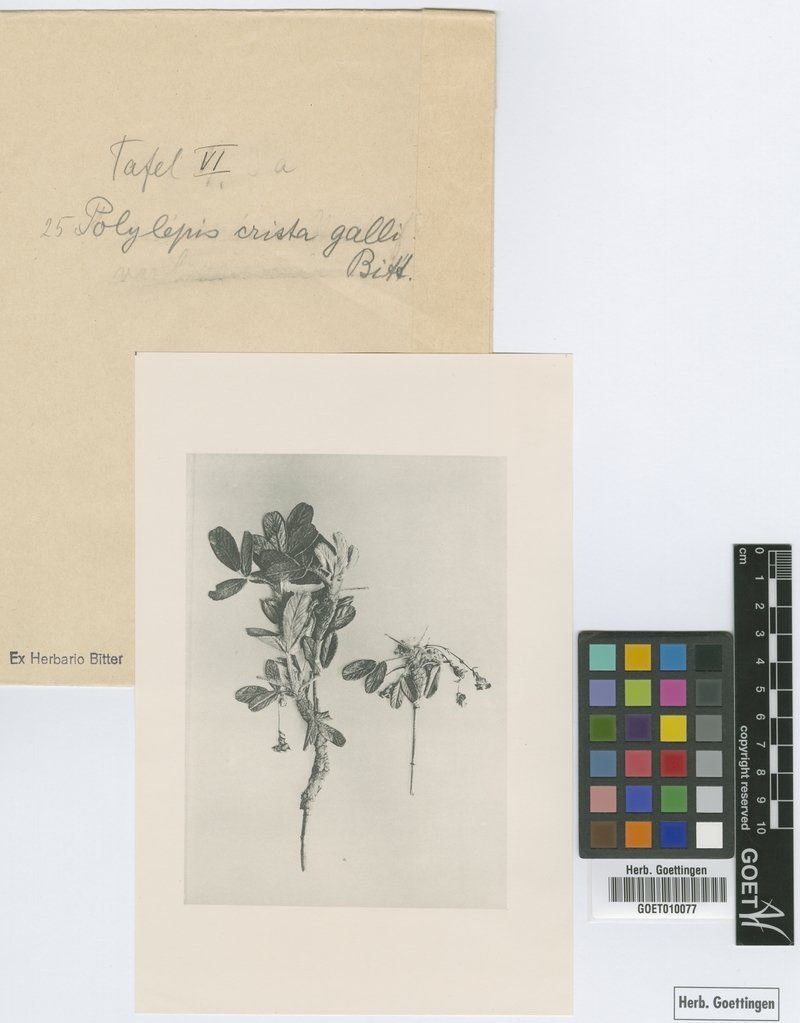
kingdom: Plantae
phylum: Tracheophyta
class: Magnoliopsida
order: Rosales
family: Rosaceae
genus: Polylepis
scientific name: Polylepis crista-galli
